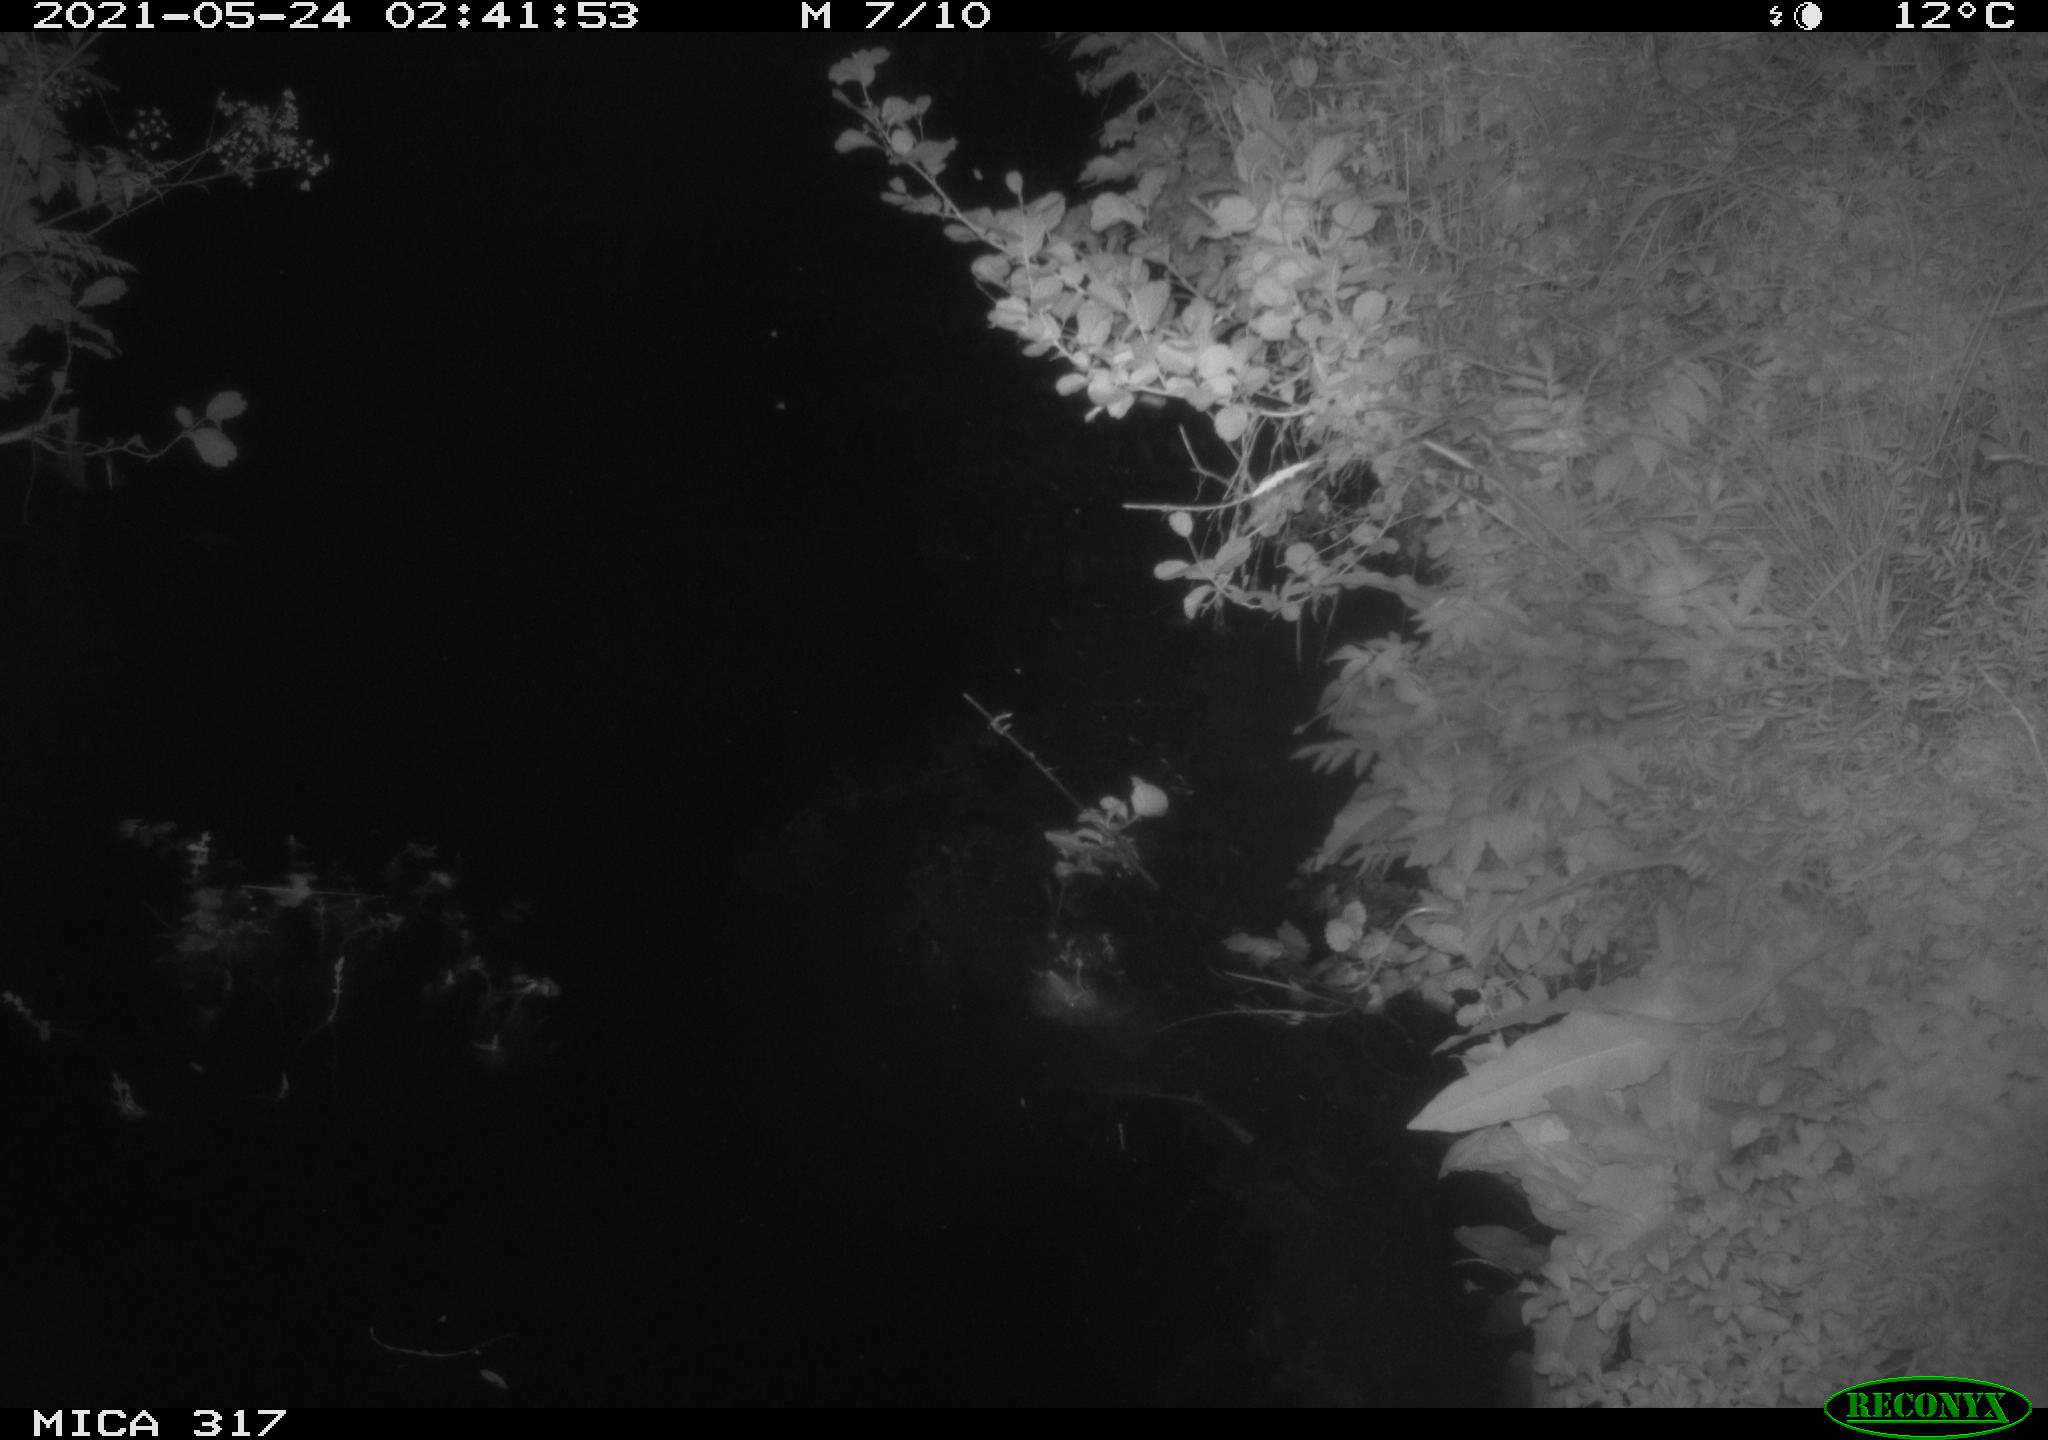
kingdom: Animalia
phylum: Chordata
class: Aves
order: Anseriformes
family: Anatidae
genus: Anas
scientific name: Anas
